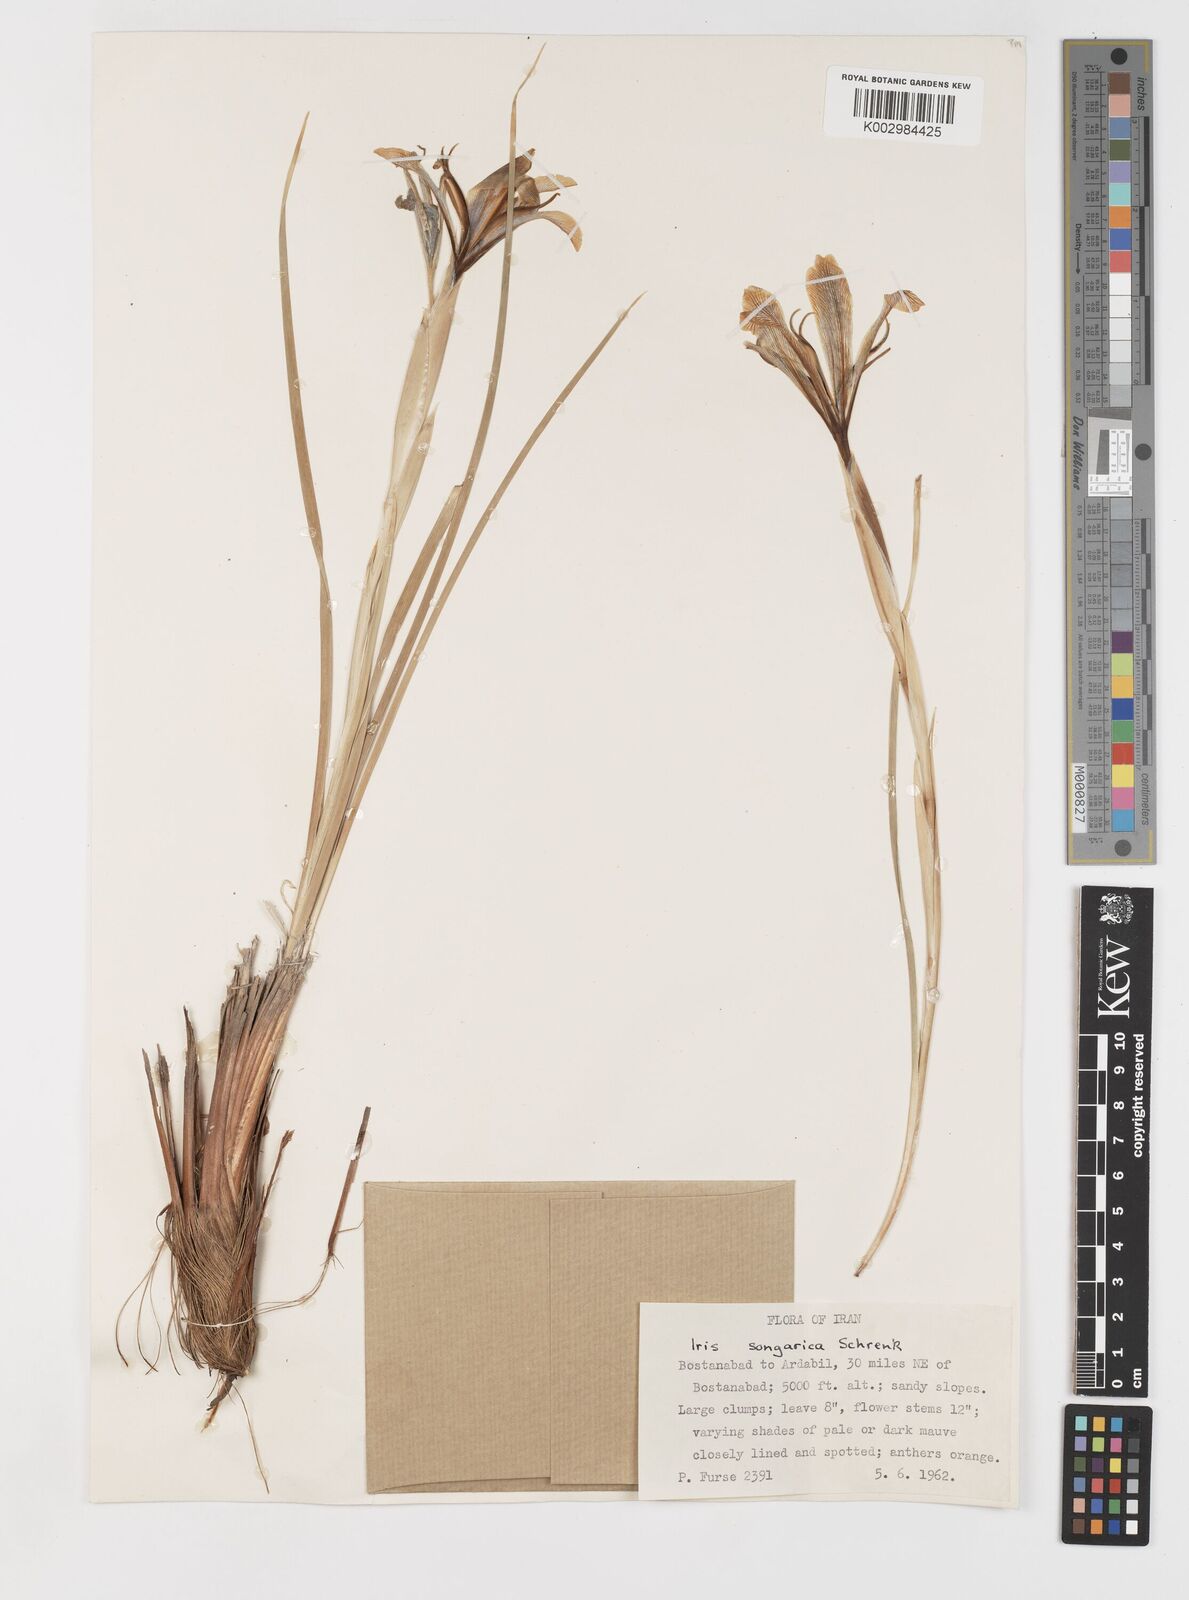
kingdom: Plantae
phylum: Tracheophyta
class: Liliopsida
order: Asparagales
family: Iridaceae
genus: Iris
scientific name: Iris songarica
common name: Songar iris
